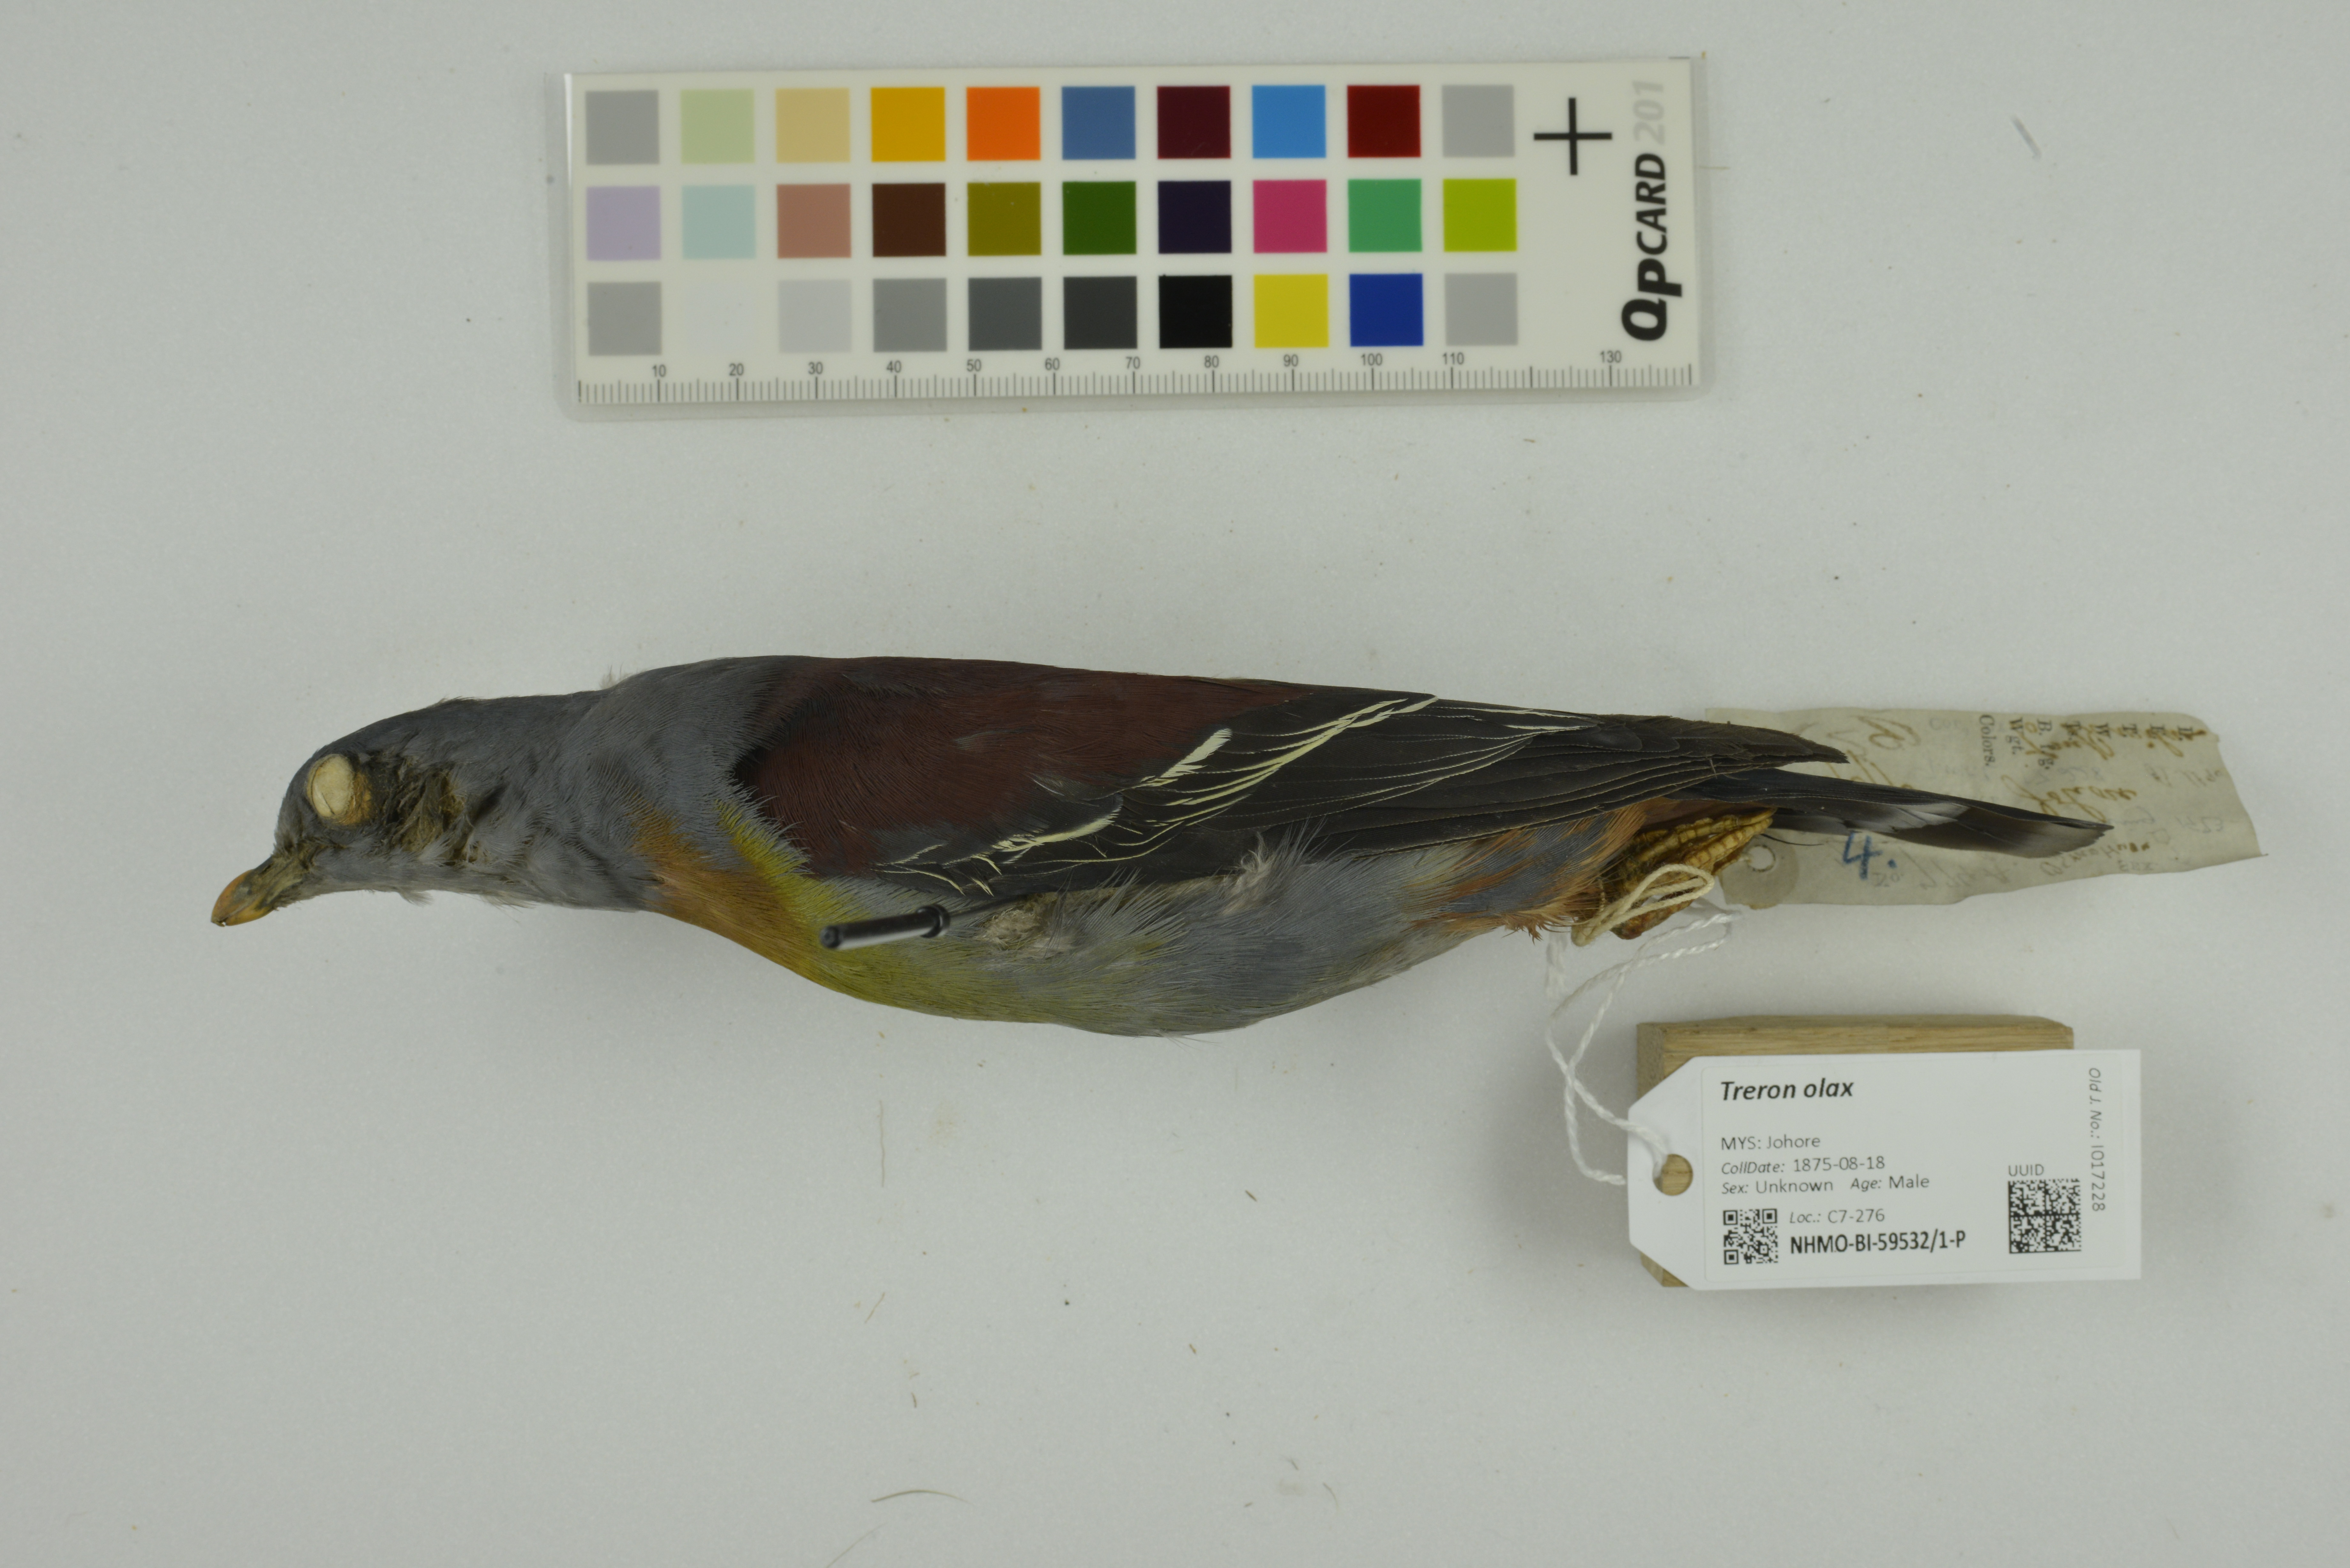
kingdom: Animalia
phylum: Chordata
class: Aves
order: Columbiformes
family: Columbidae
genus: Treron
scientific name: Treron olax
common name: Little green pigeon
